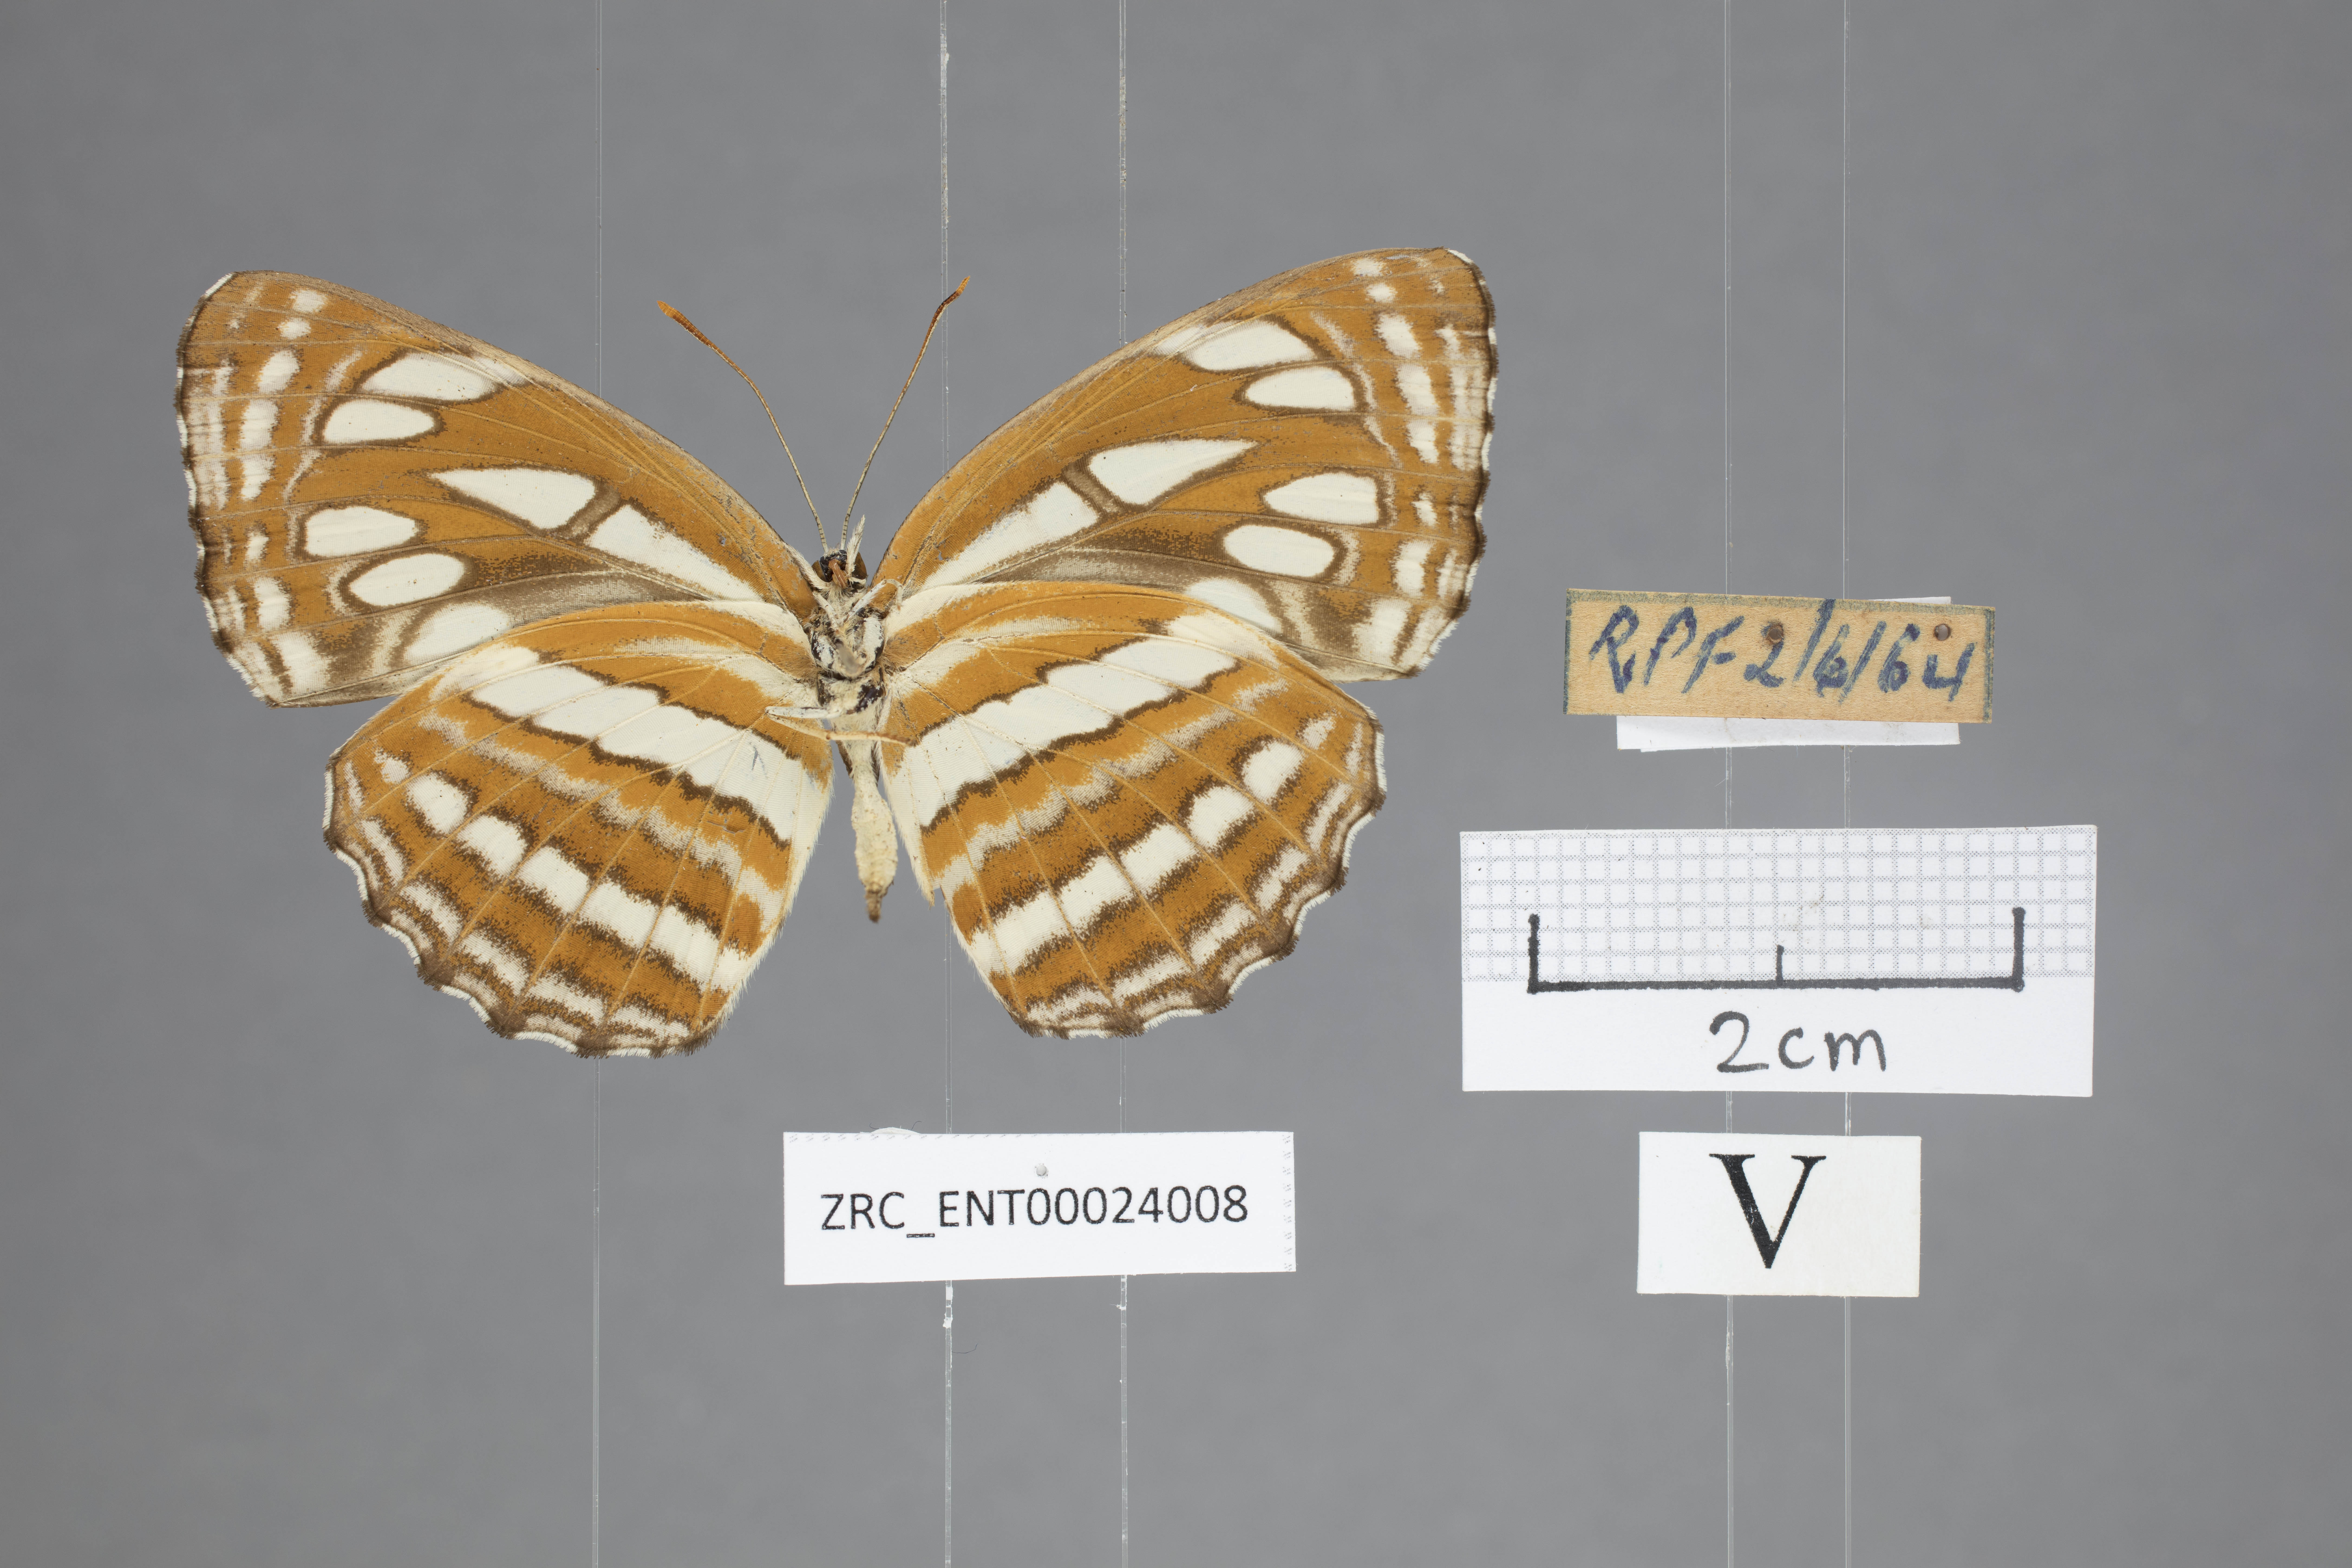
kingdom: Animalia
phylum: Arthropoda
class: Insecta
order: Lepidoptera
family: Nymphalidae
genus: Neptis
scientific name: Neptis hylas
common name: Common sailer
